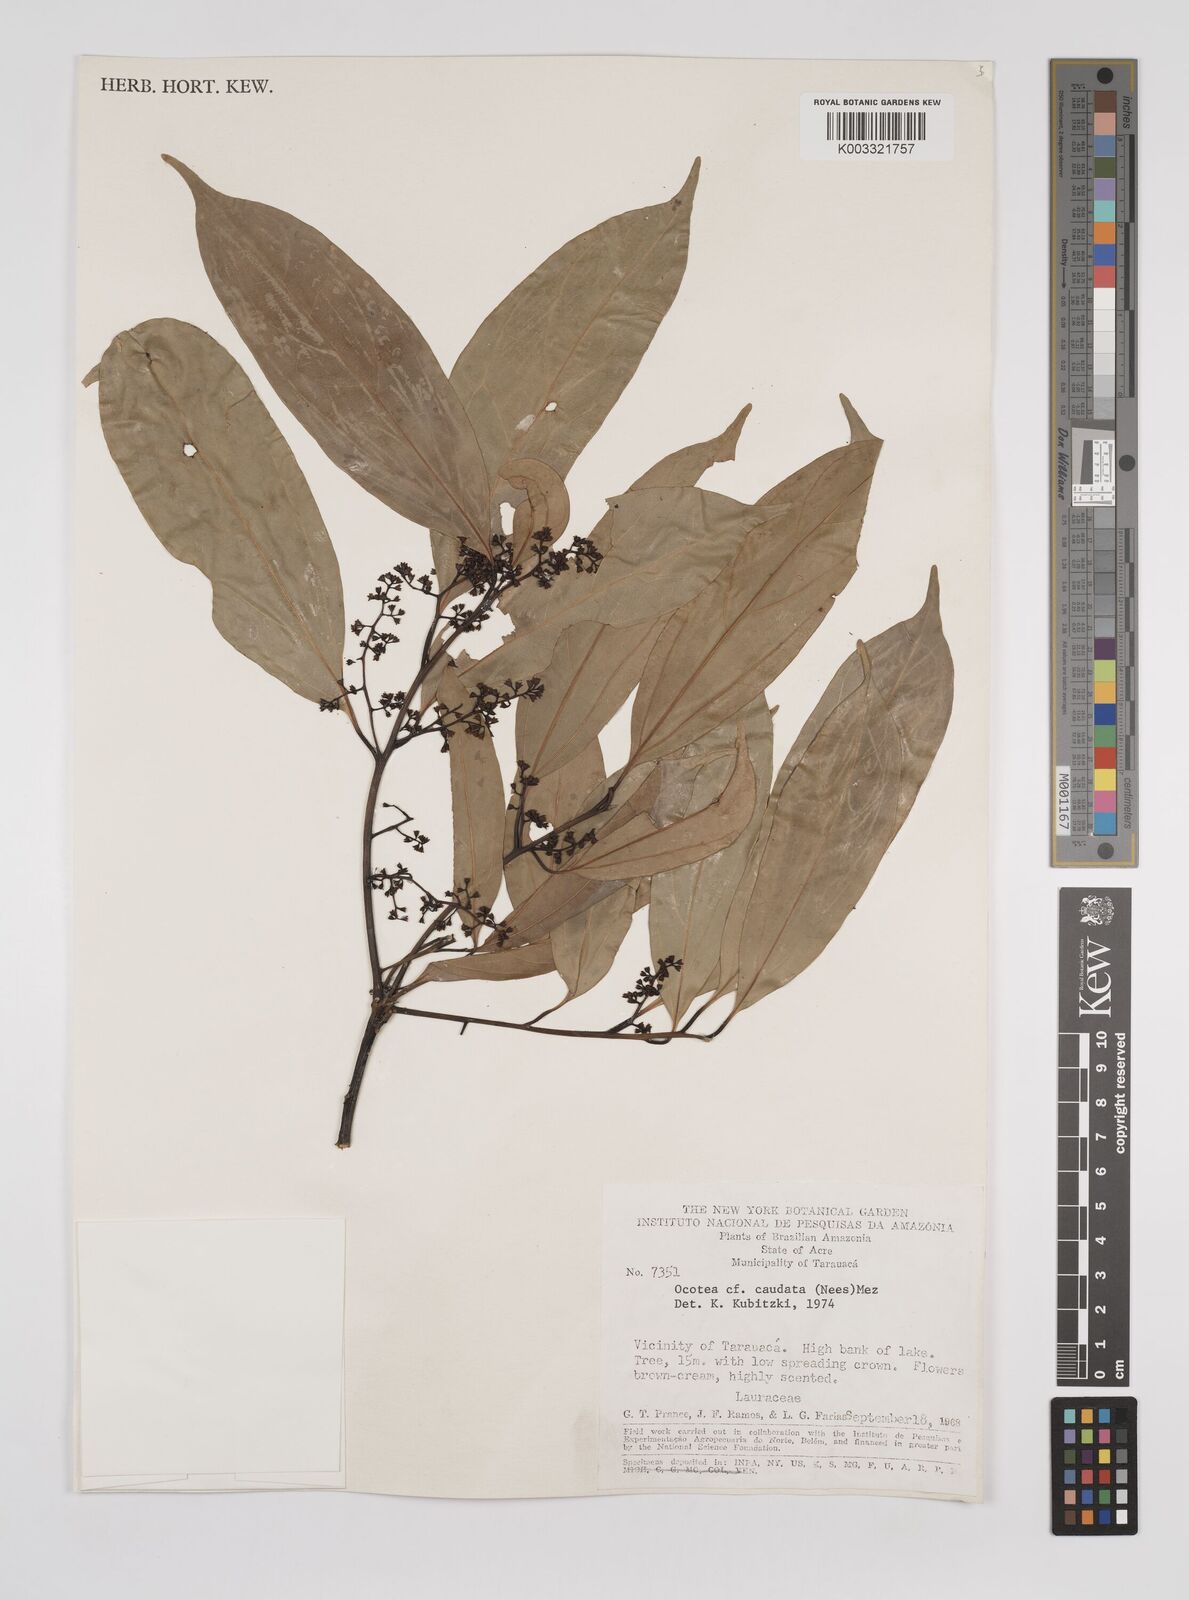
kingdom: Plantae
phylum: Tracheophyta
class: Magnoliopsida
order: Laurales
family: Lauraceae
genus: Ocotea
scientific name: Ocotea leptobotra
